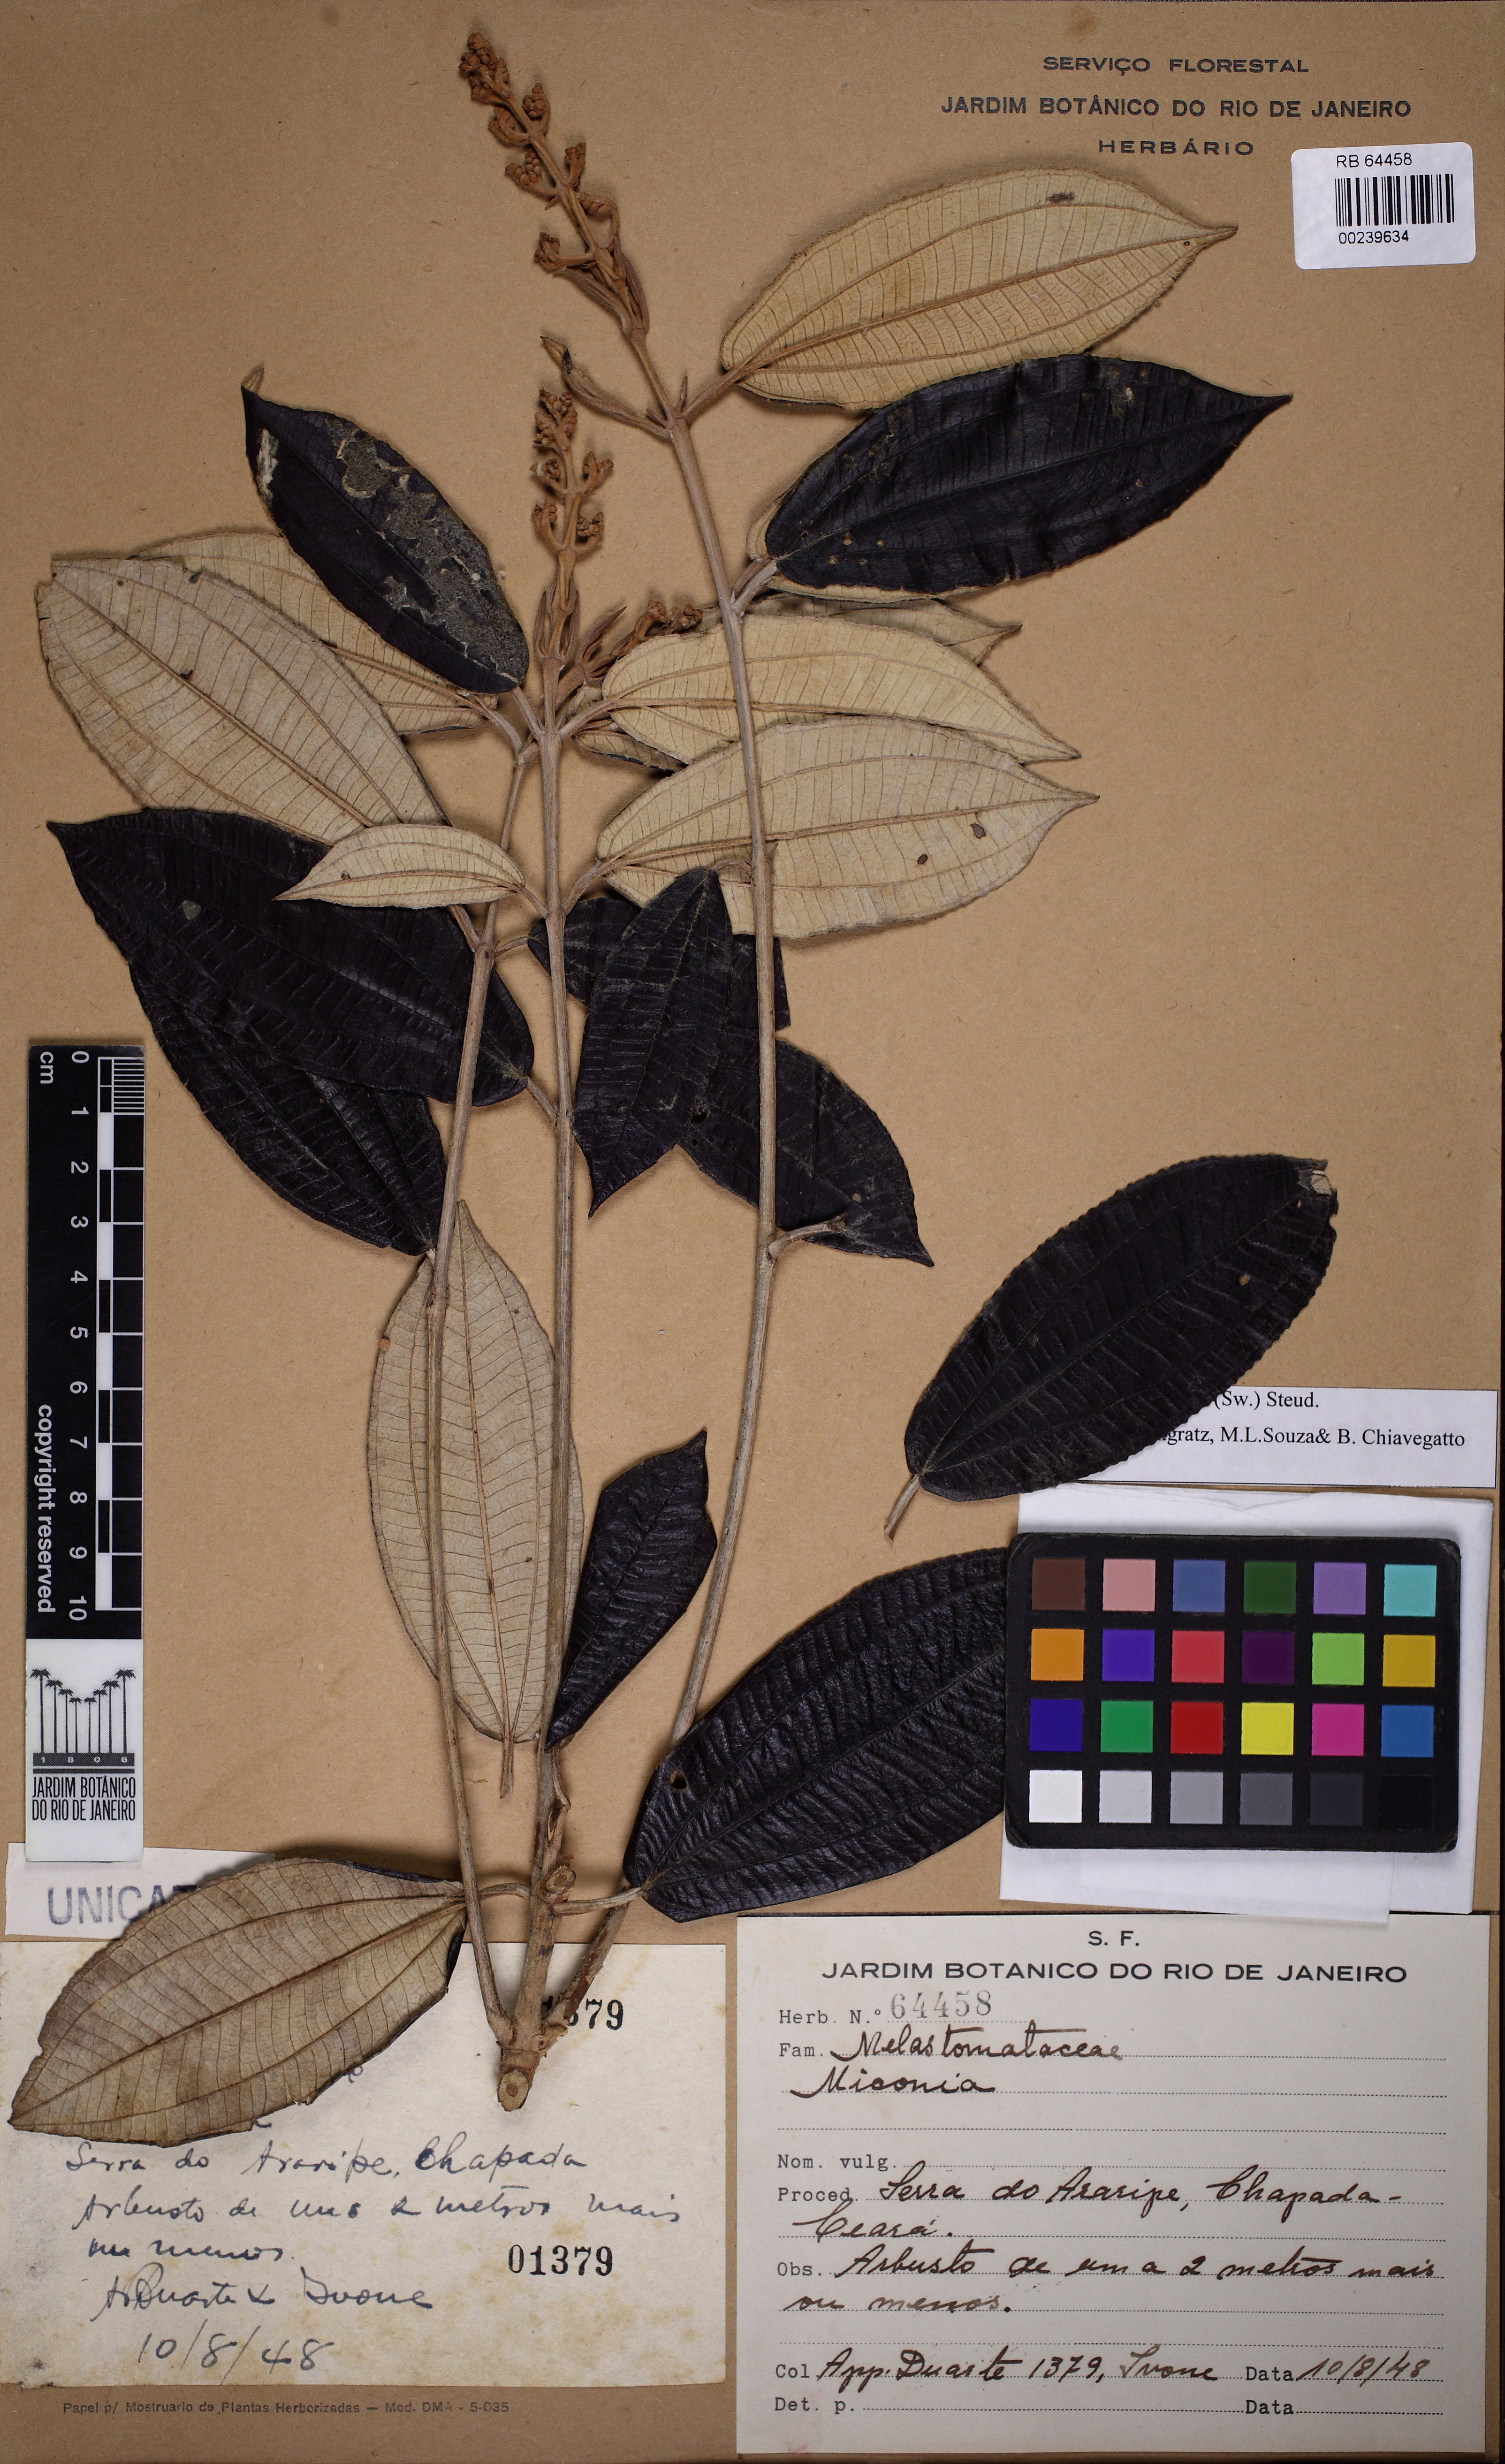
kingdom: Plantae
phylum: Tracheophyta
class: Magnoliopsida
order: Myrtales
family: Melastomataceae
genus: Miconia
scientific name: Miconia albicans
